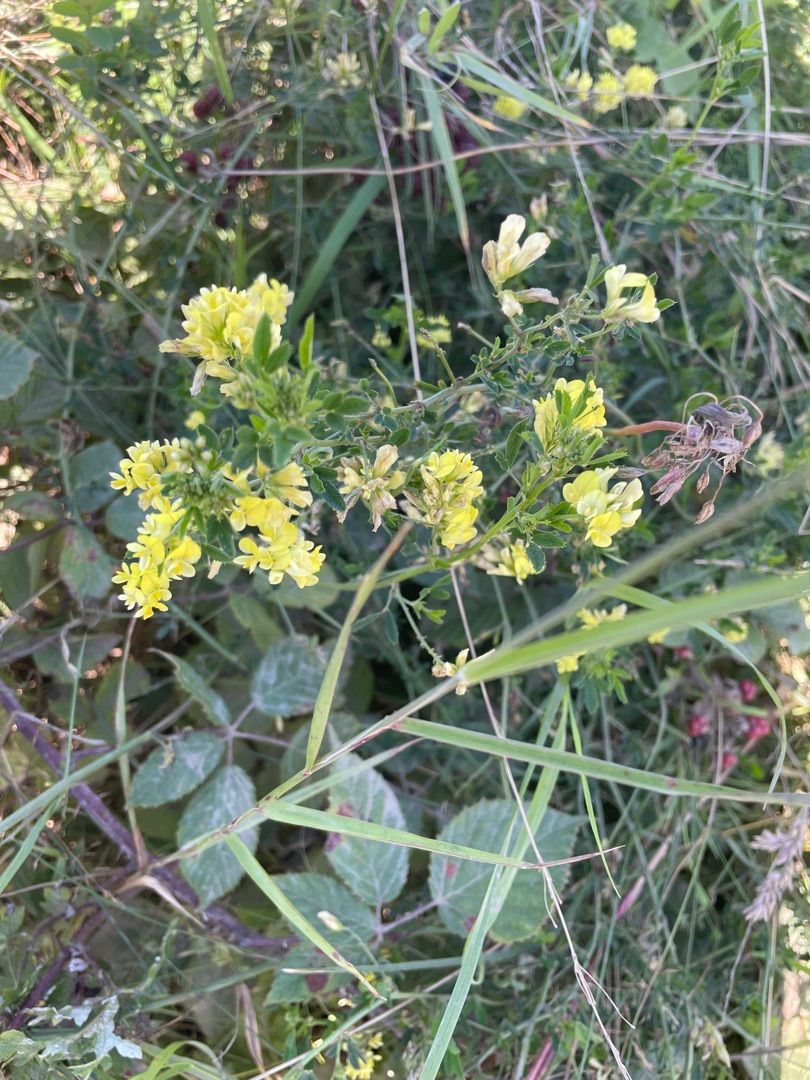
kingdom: Plantae
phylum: Tracheophyta
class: Magnoliopsida
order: Fabales
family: Fabaceae
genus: Medicago
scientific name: Medicago falcata
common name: Segl-sneglebælg
